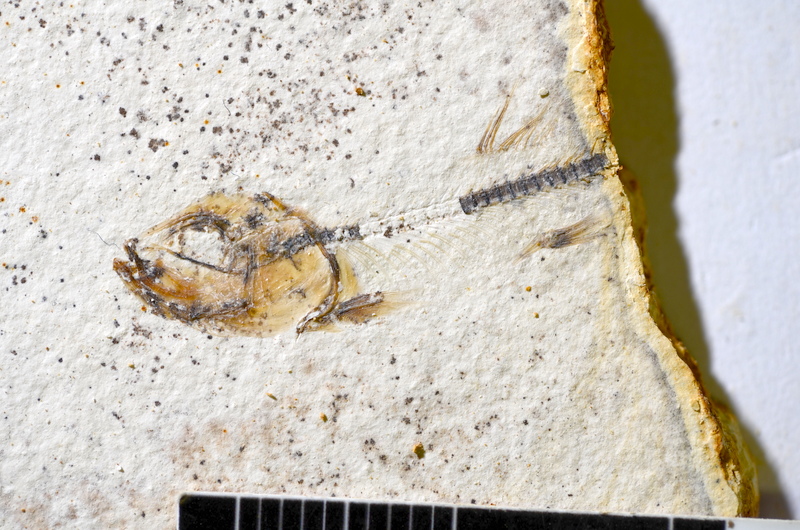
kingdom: Animalia
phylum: Chordata
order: Salmoniformes
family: Orthogonikleithridae
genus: Orthogonikleithrus
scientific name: Orthogonikleithrus hoelli
